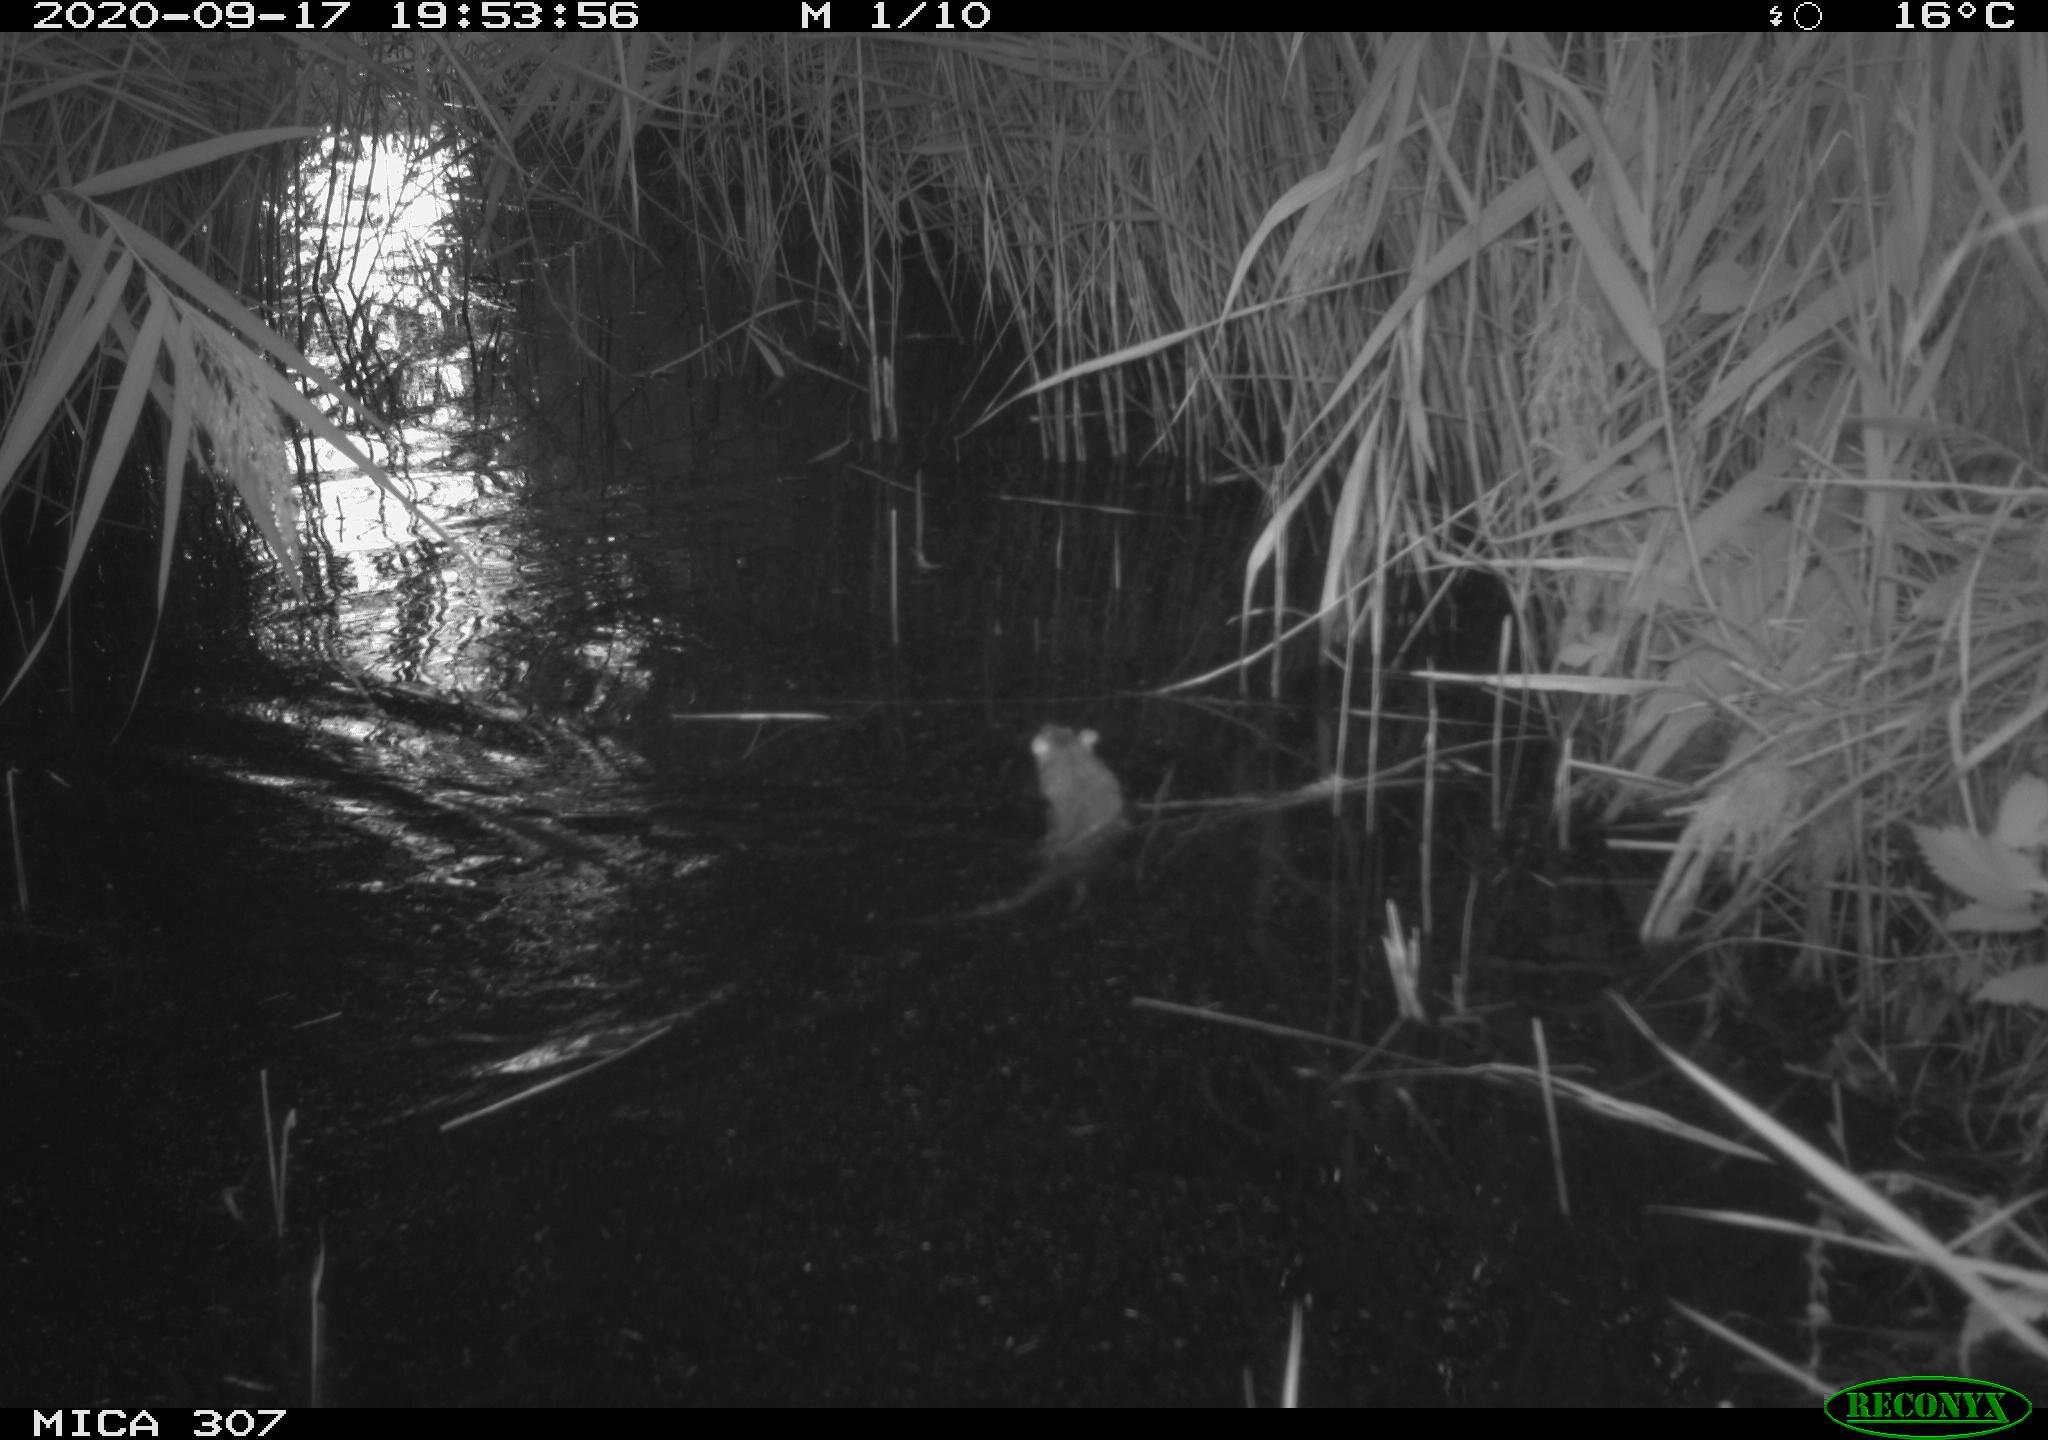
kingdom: Animalia
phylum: Chordata
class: Mammalia
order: Rodentia
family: Muridae
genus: Rattus
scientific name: Rattus norvegicus
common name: Brown rat
